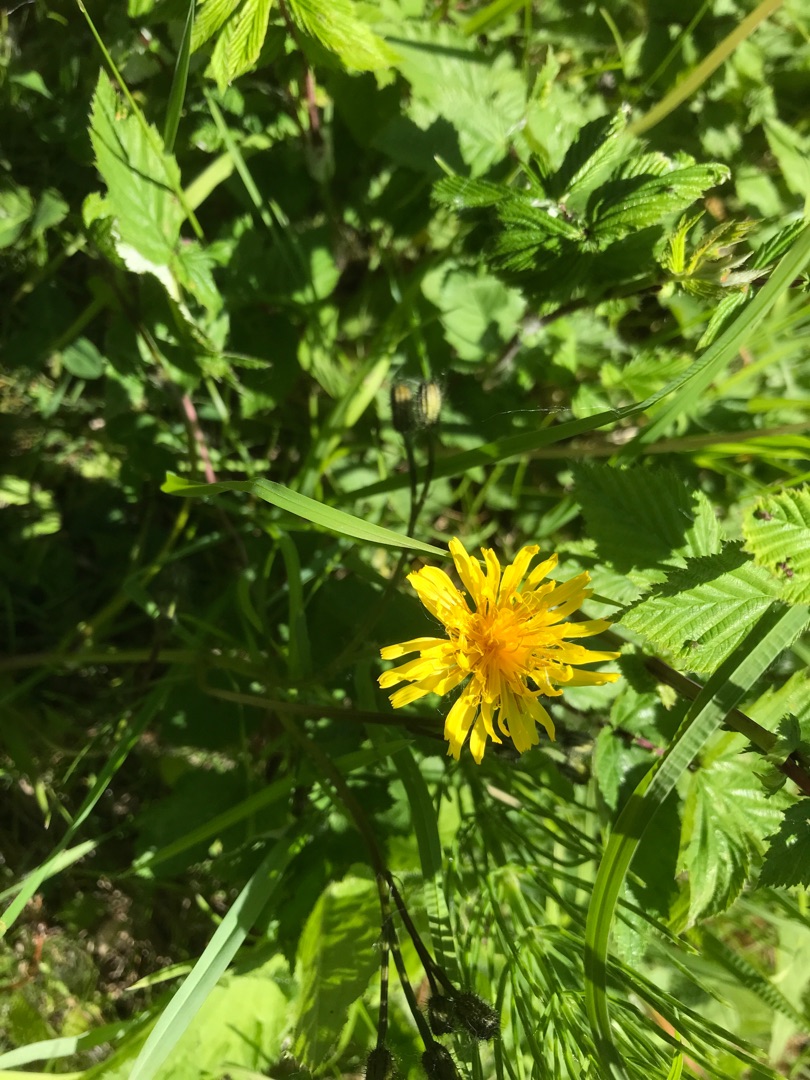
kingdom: Plantae
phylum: Tracheophyta
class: Magnoliopsida
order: Asterales
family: Asteraceae
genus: Sonchus
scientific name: Sonchus arvensis
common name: Ager-svinemælk
